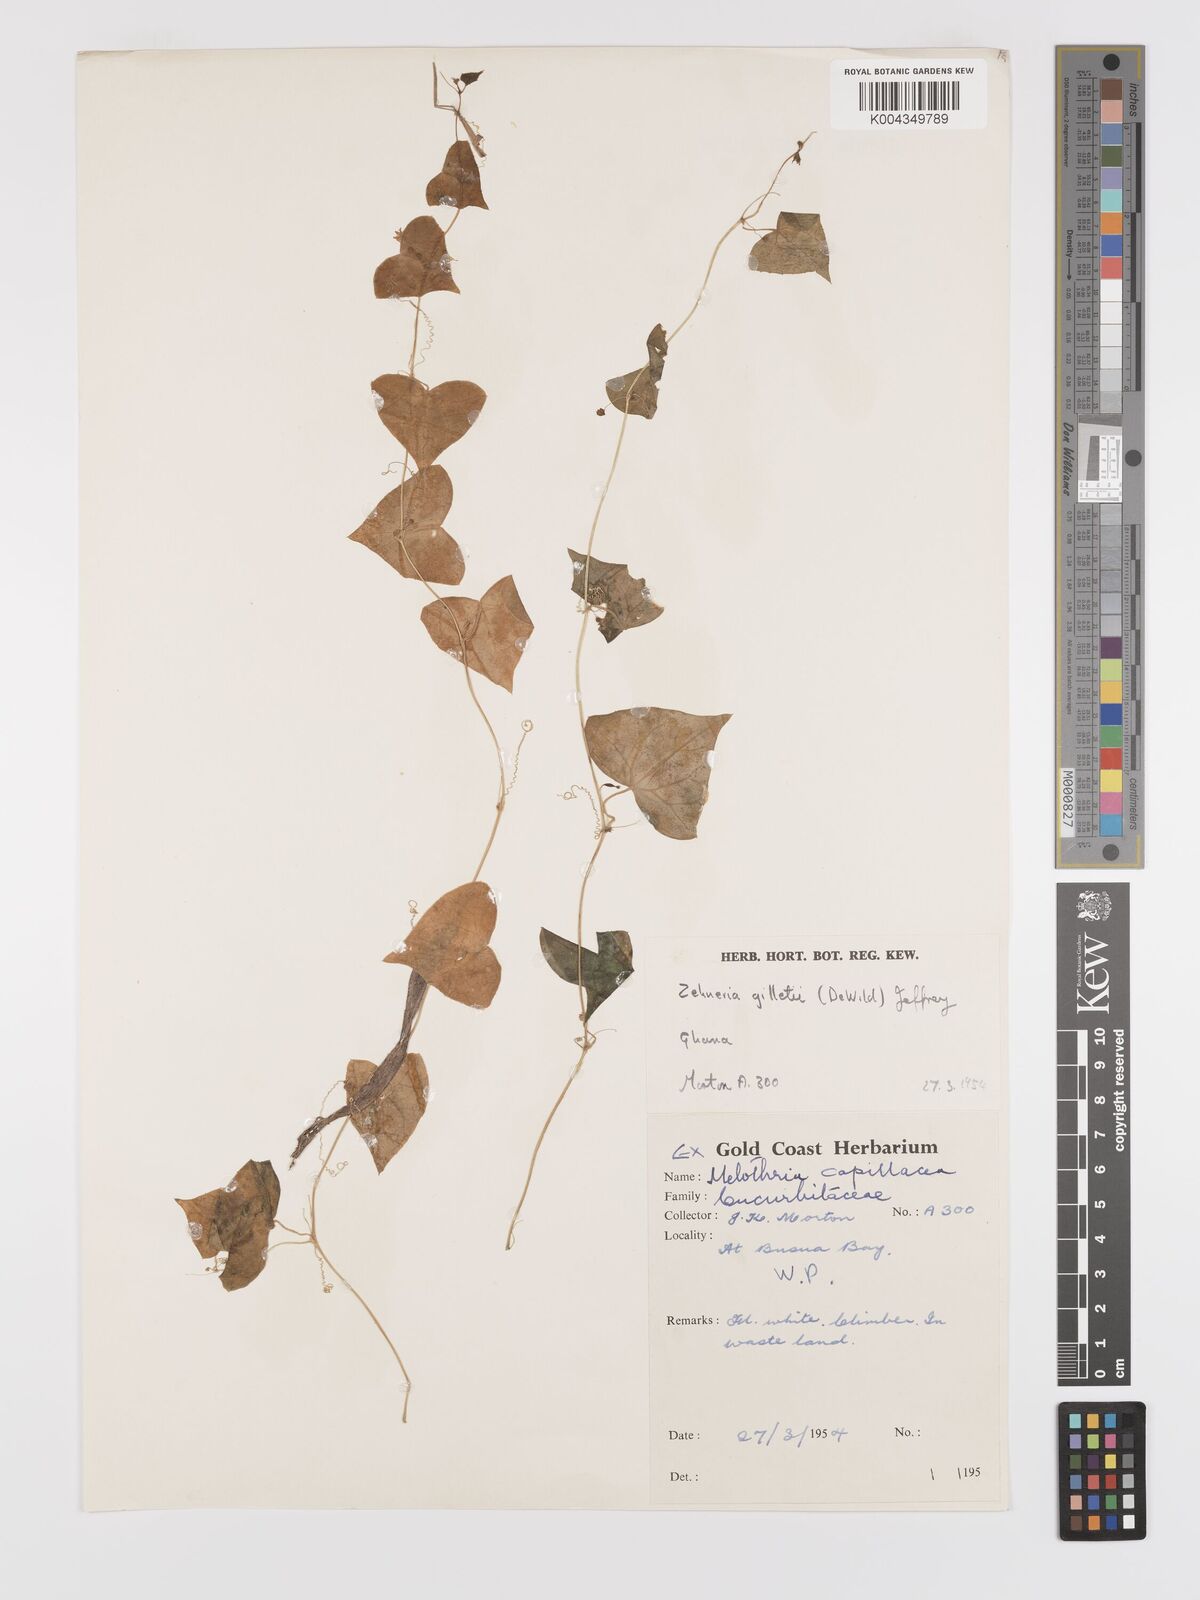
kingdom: Plantae
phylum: Tracheophyta
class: Magnoliopsida
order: Cucurbitales
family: Cucurbitaceae
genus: Zehneria
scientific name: Zehneria gilletii
